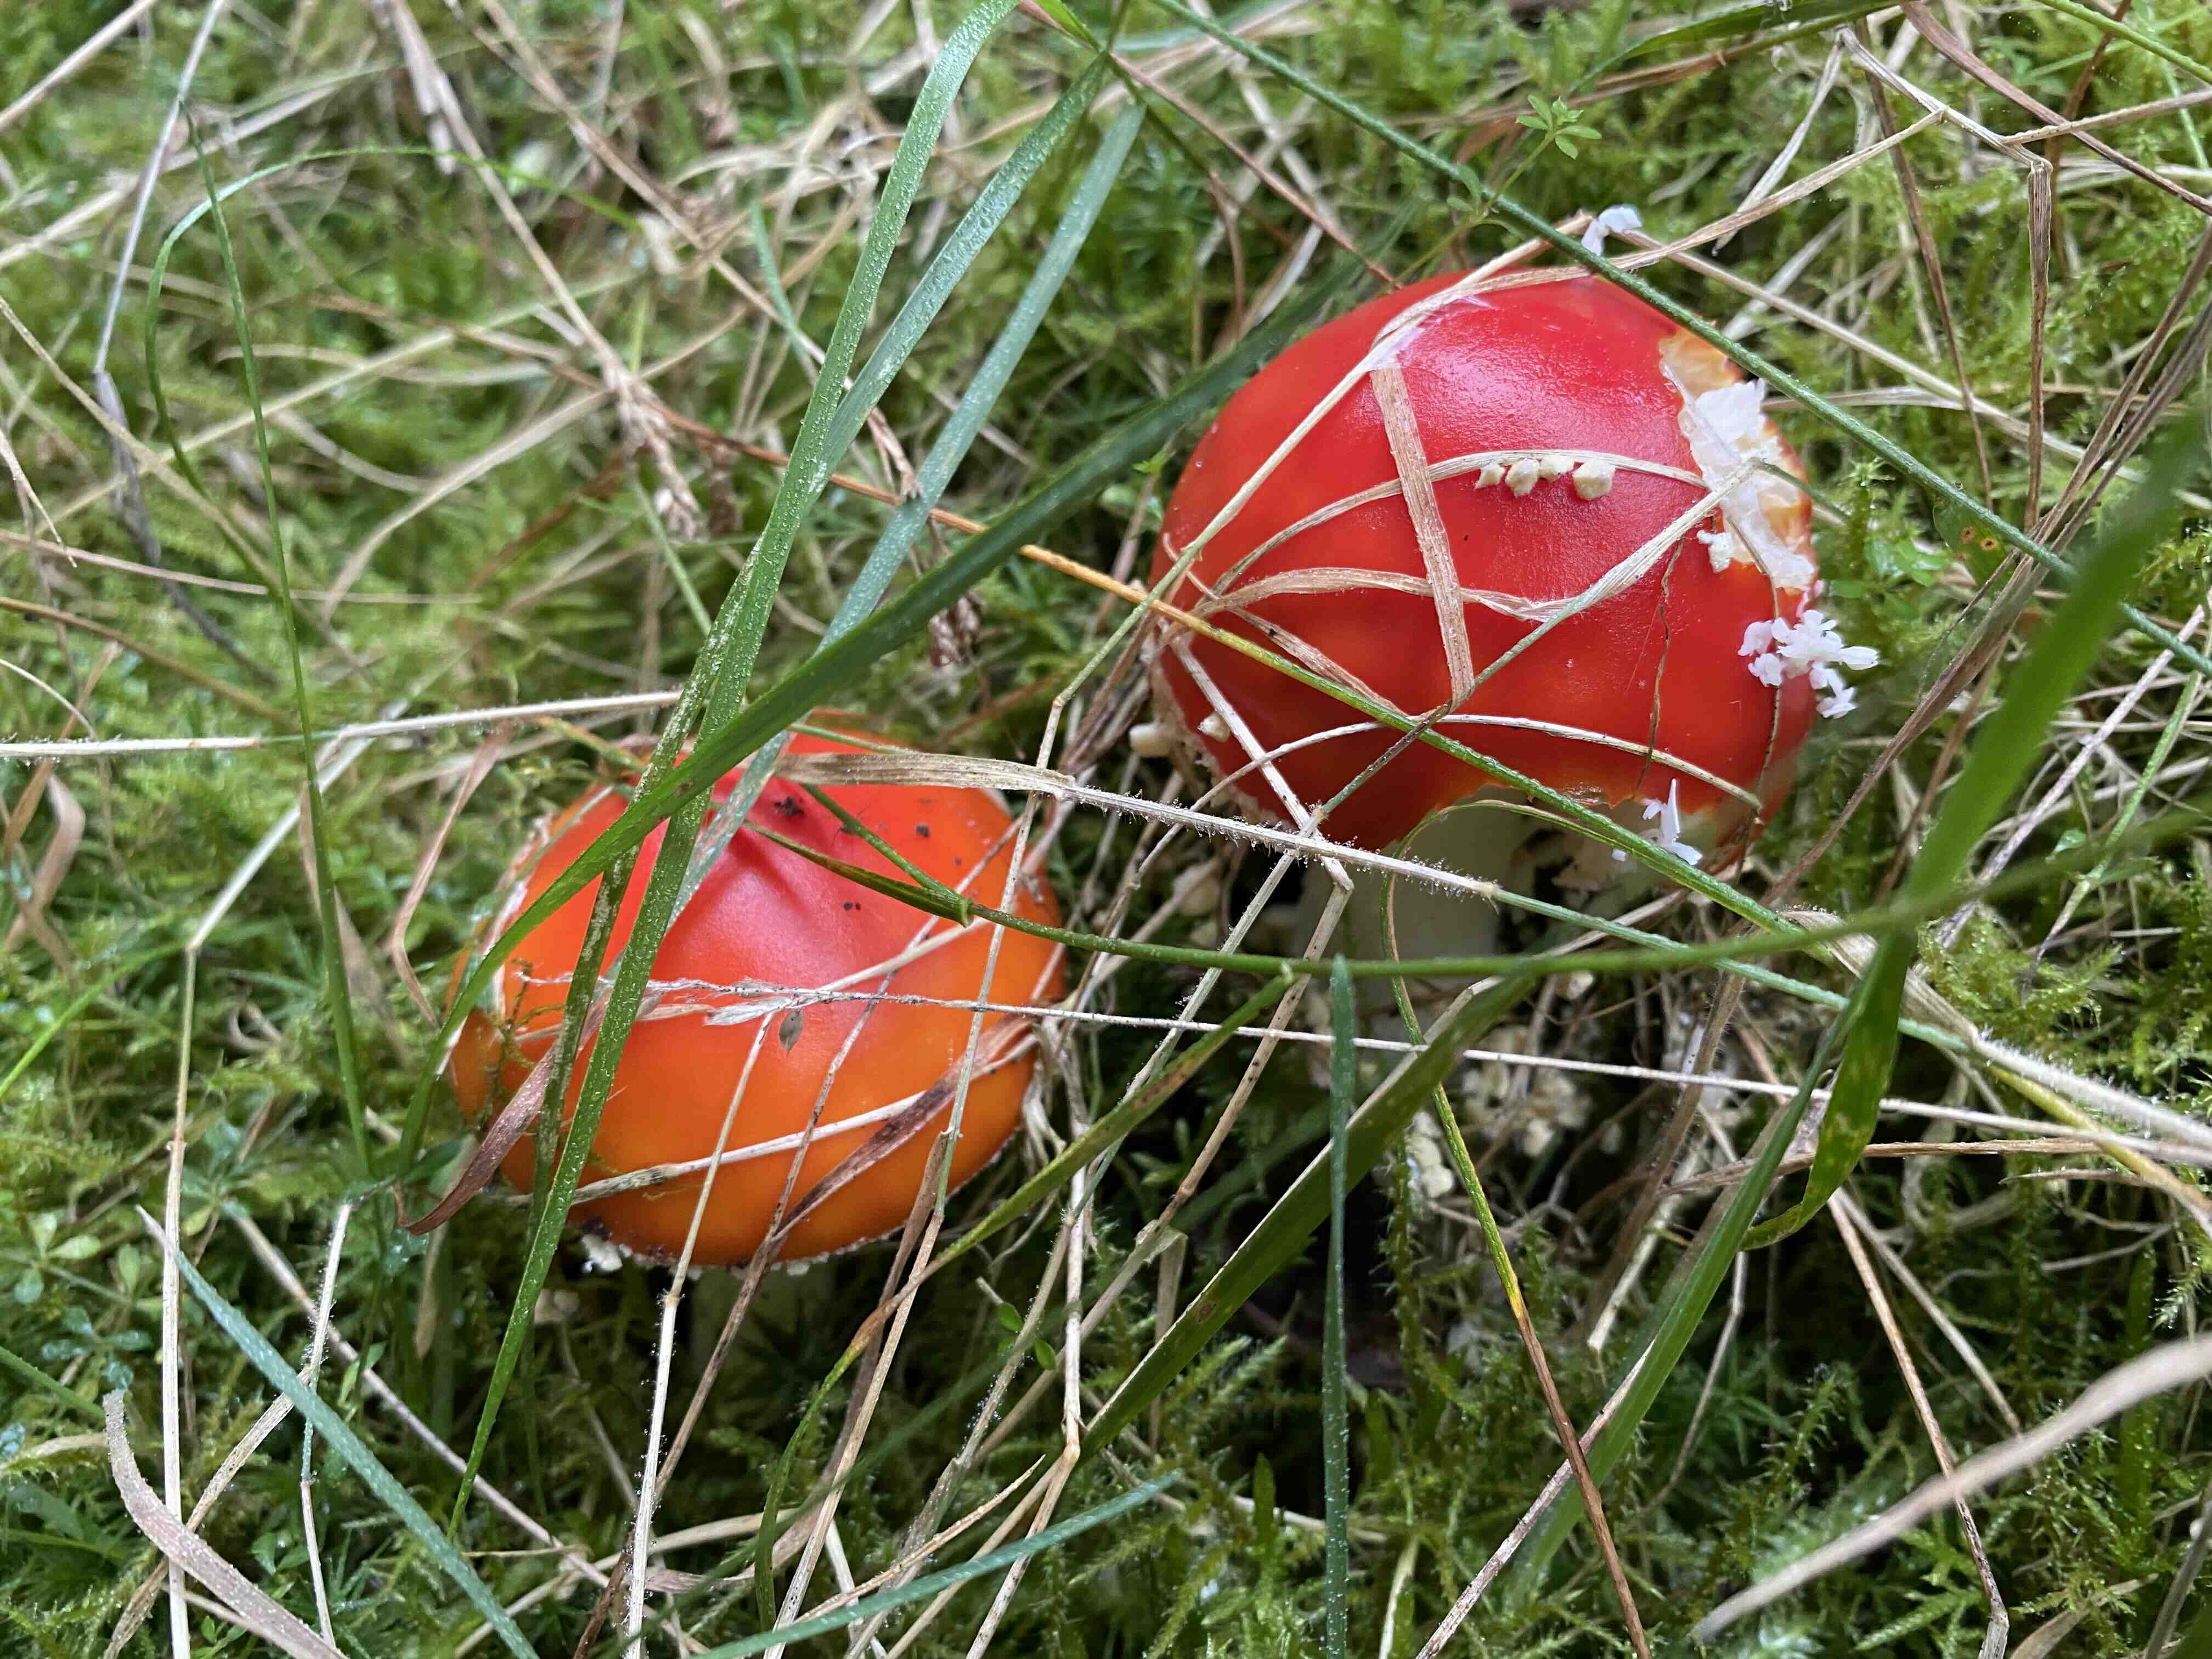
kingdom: Fungi
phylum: Basidiomycota
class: Agaricomycetes
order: Agaricales
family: Amanitaceae
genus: Amanita
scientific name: Amanita muscaria
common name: rød fluesvamp
